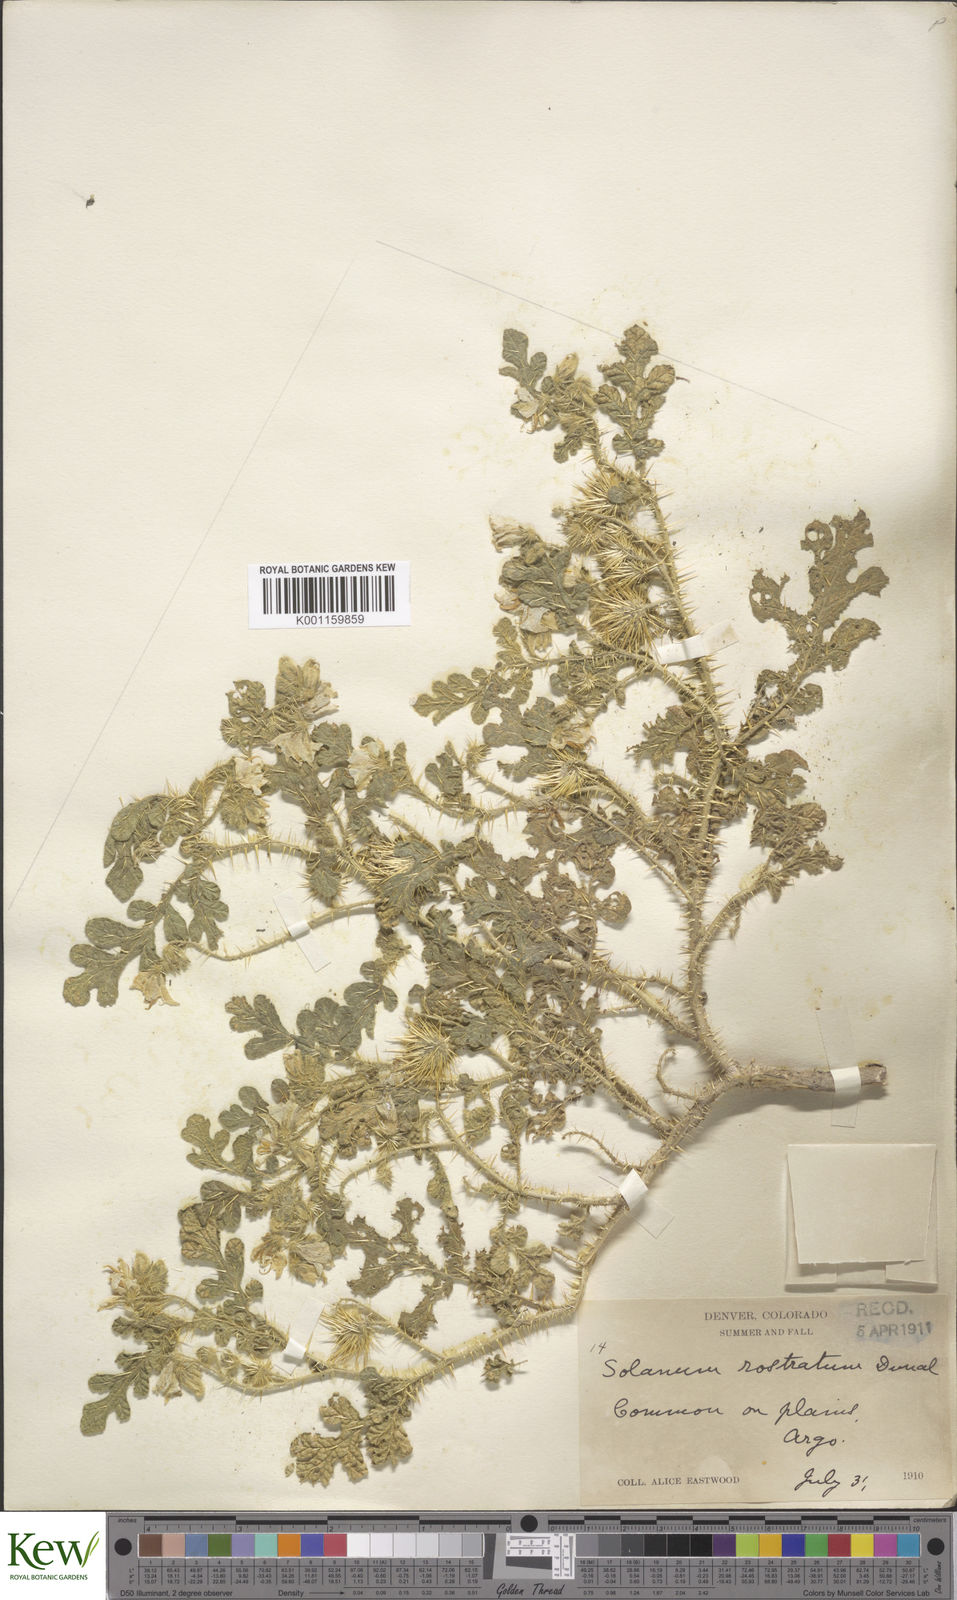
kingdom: Plantae
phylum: Tracheophyta
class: Magnoliopsida
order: Solanales
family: Solanaceae
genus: Solanum
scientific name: Solanum angustifolium
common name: Buffalobur nightshade
